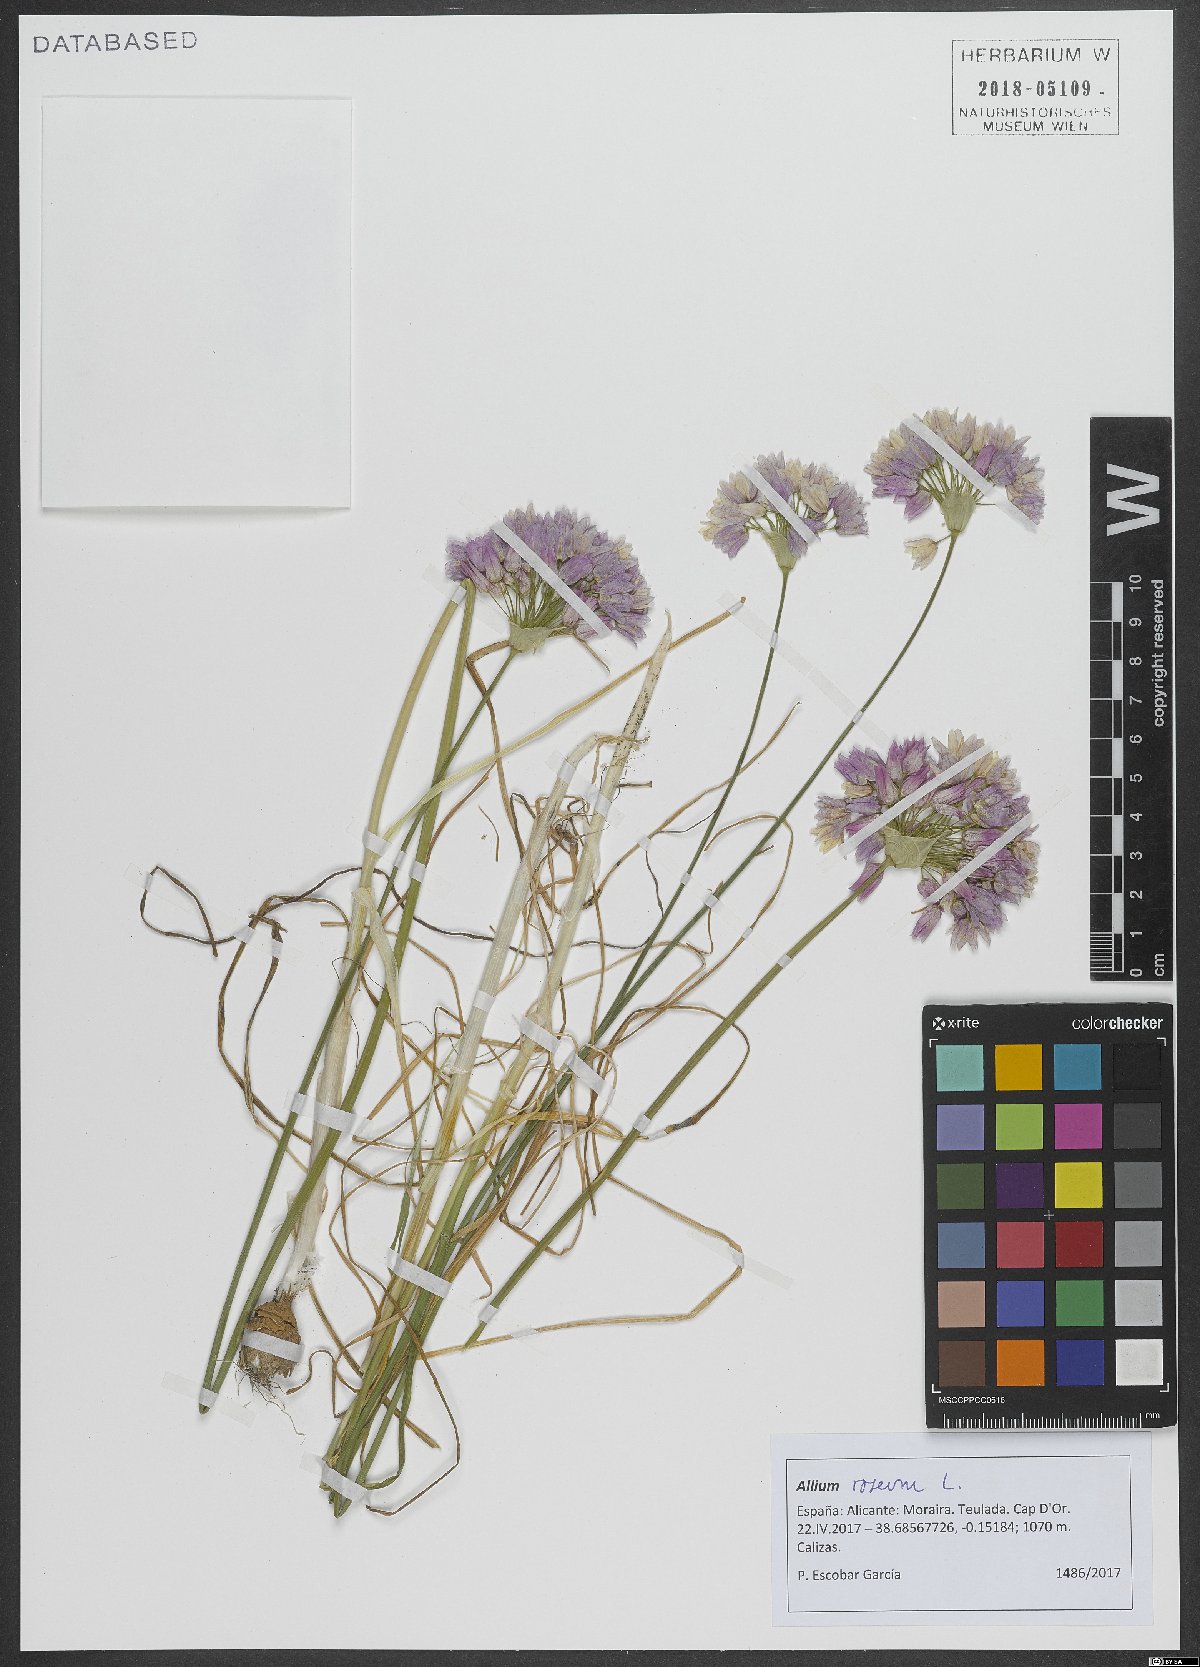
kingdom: Plantae
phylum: Tracheophyta
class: Liliopsida
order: Asparagales
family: Amaryllidaceae
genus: Allium
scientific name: Allium roseum
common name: Rosy garlic
